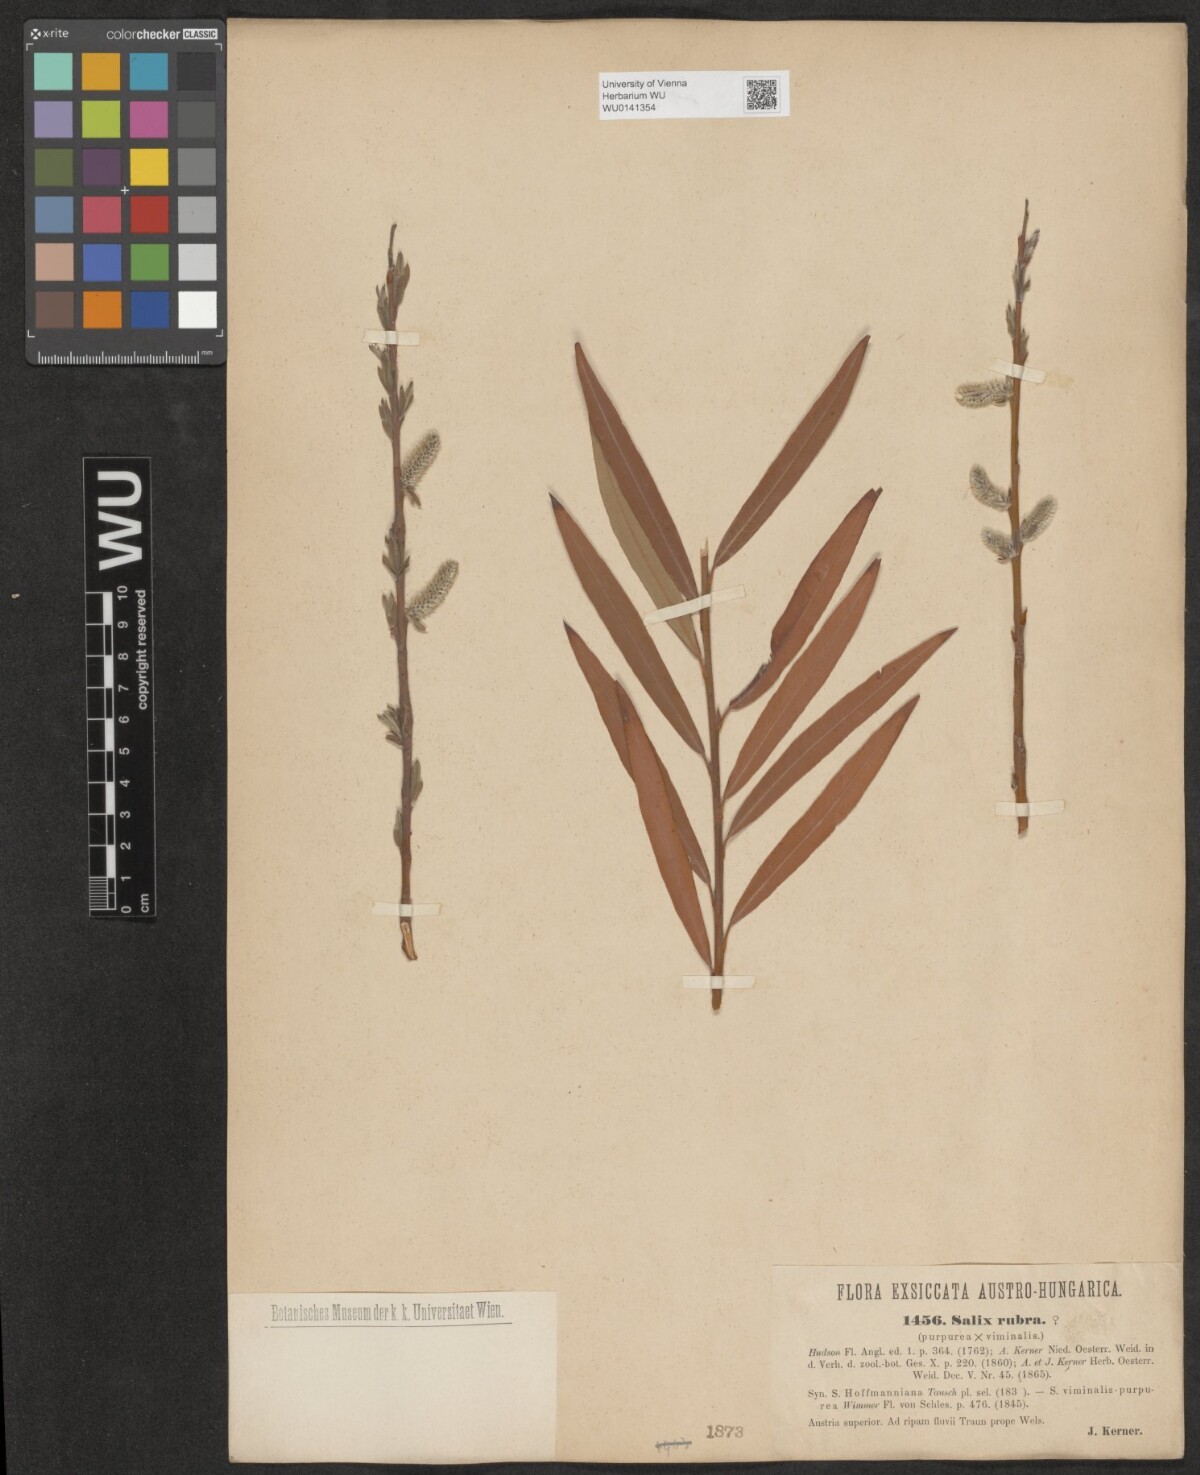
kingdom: Plantae
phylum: Tracheophyta
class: Magnoliopsida
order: Malpighiales
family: Salicaceae
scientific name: Salicaceae
